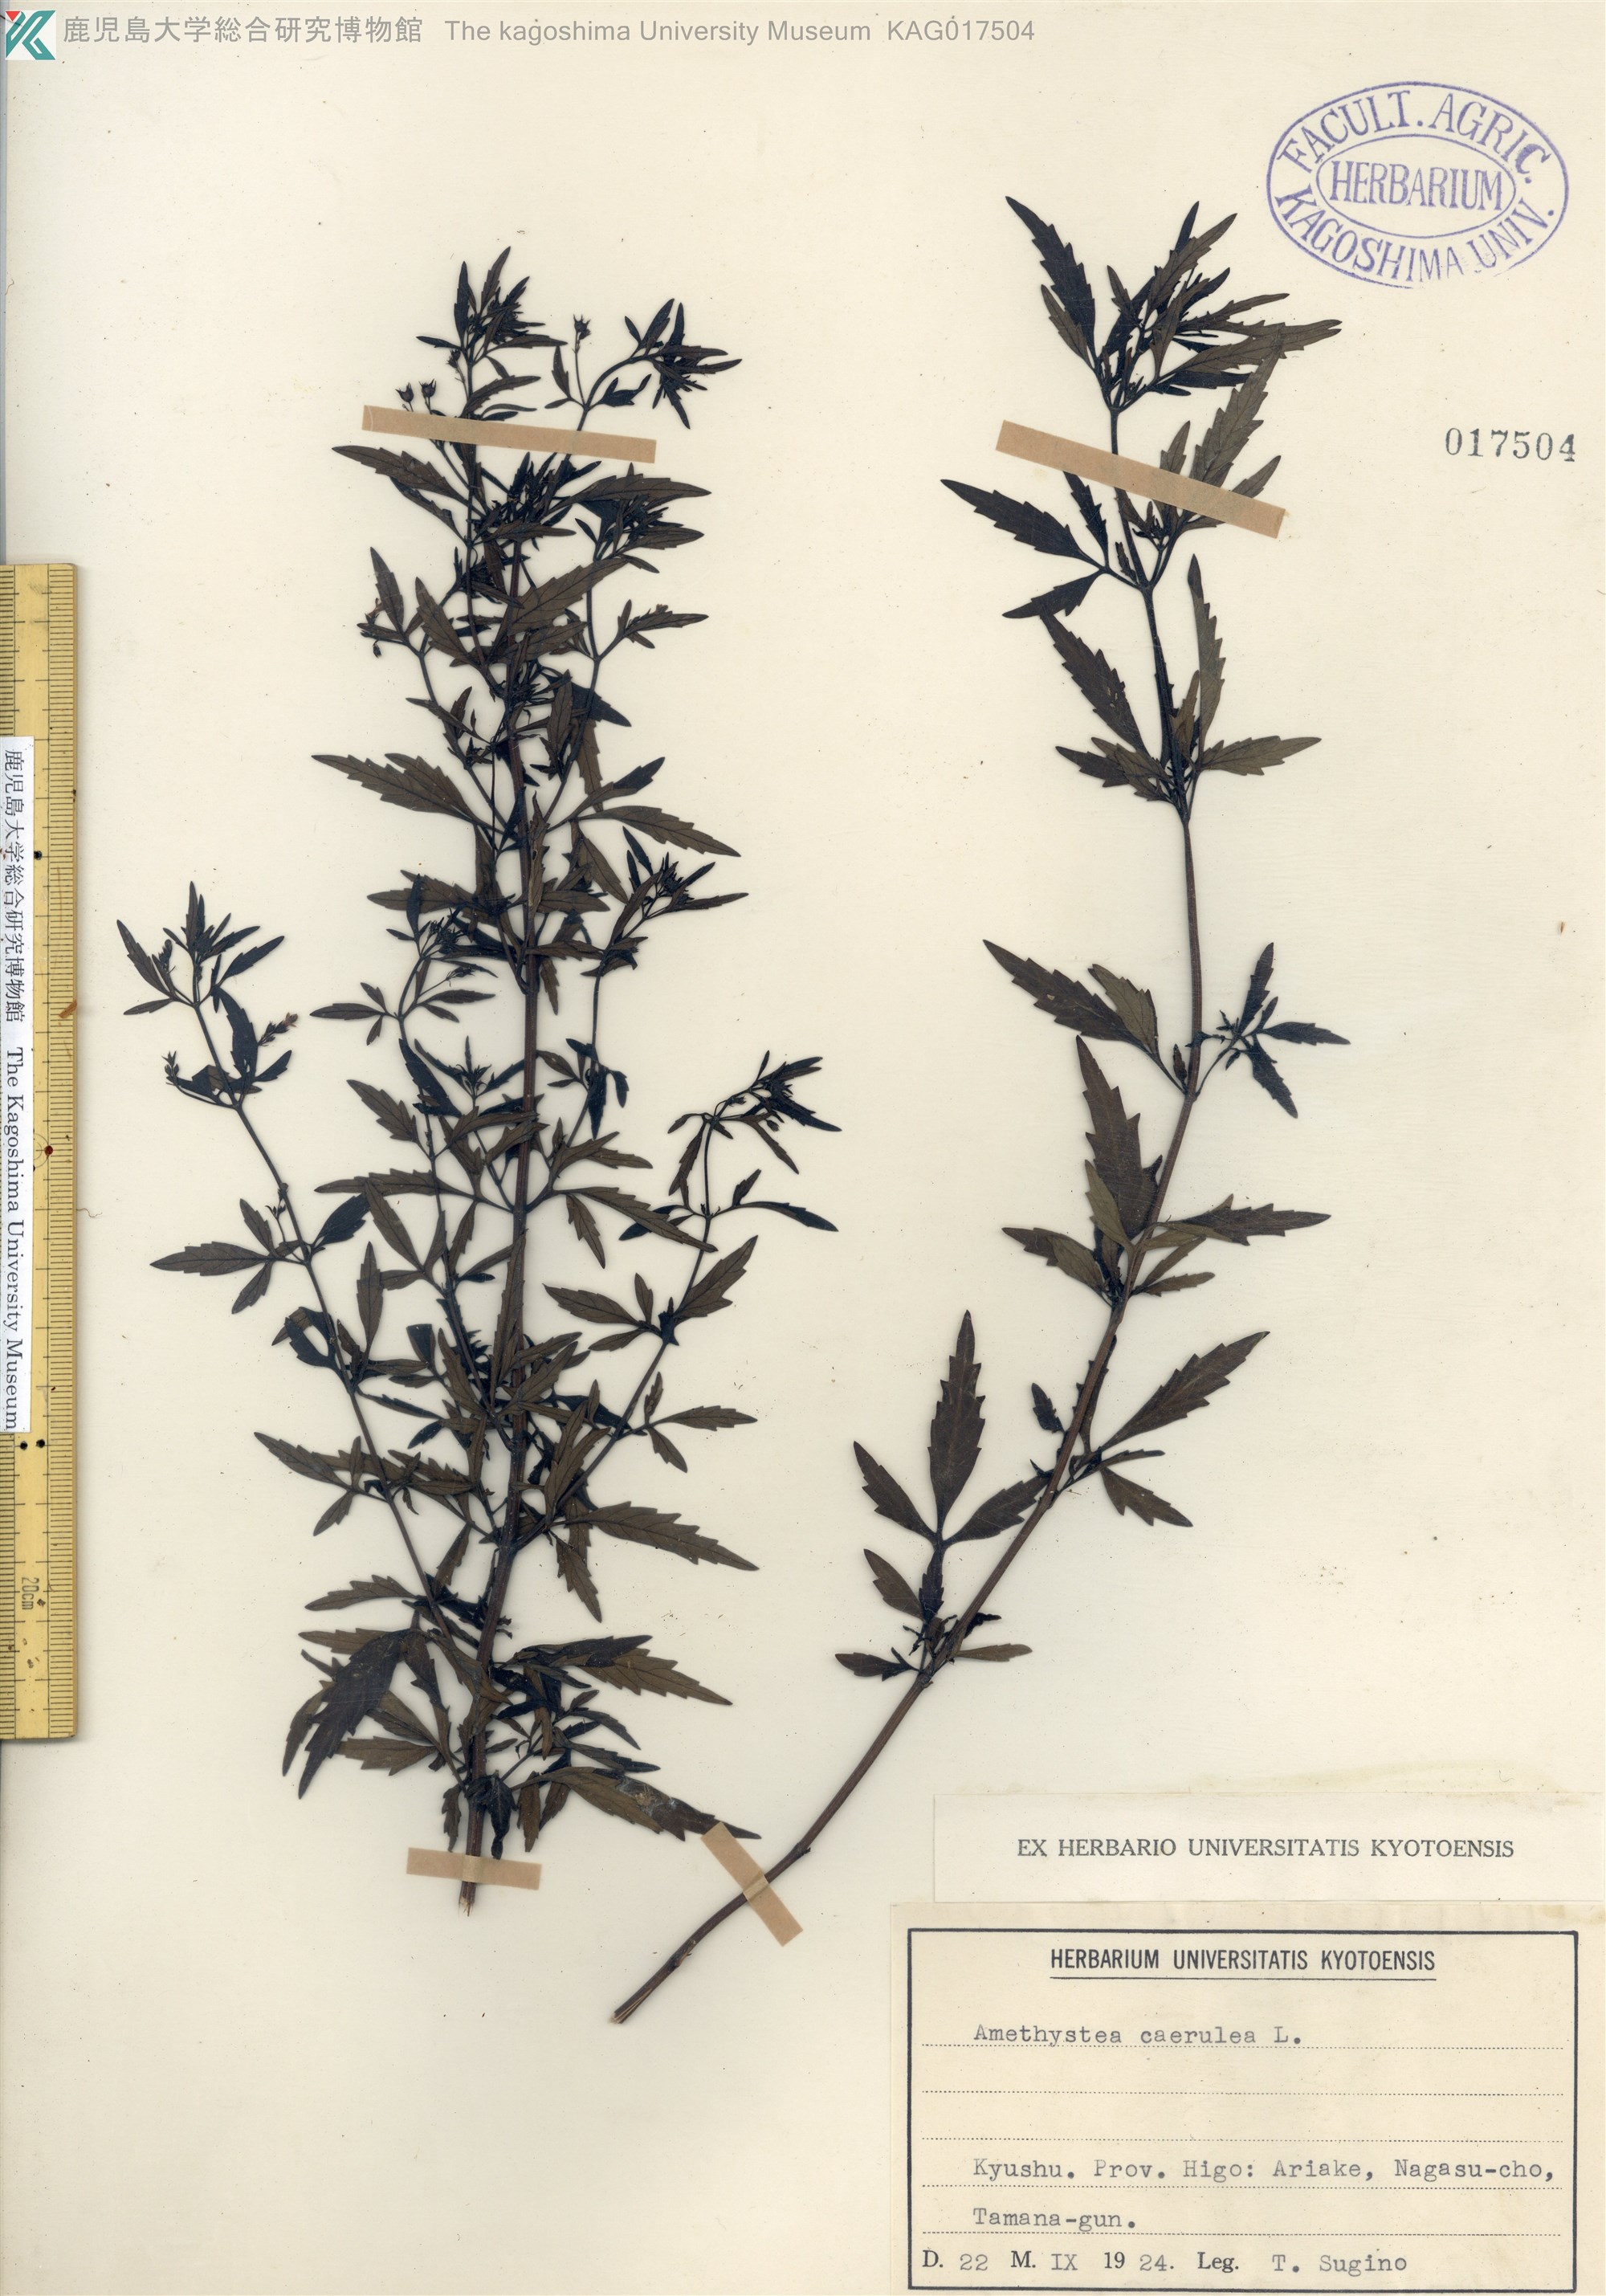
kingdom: Plantae
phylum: Tracheophyta
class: Magnoliopsida
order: Lamiales
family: Lamiaceae
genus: Amethystea
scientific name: Amethystea caerulea
